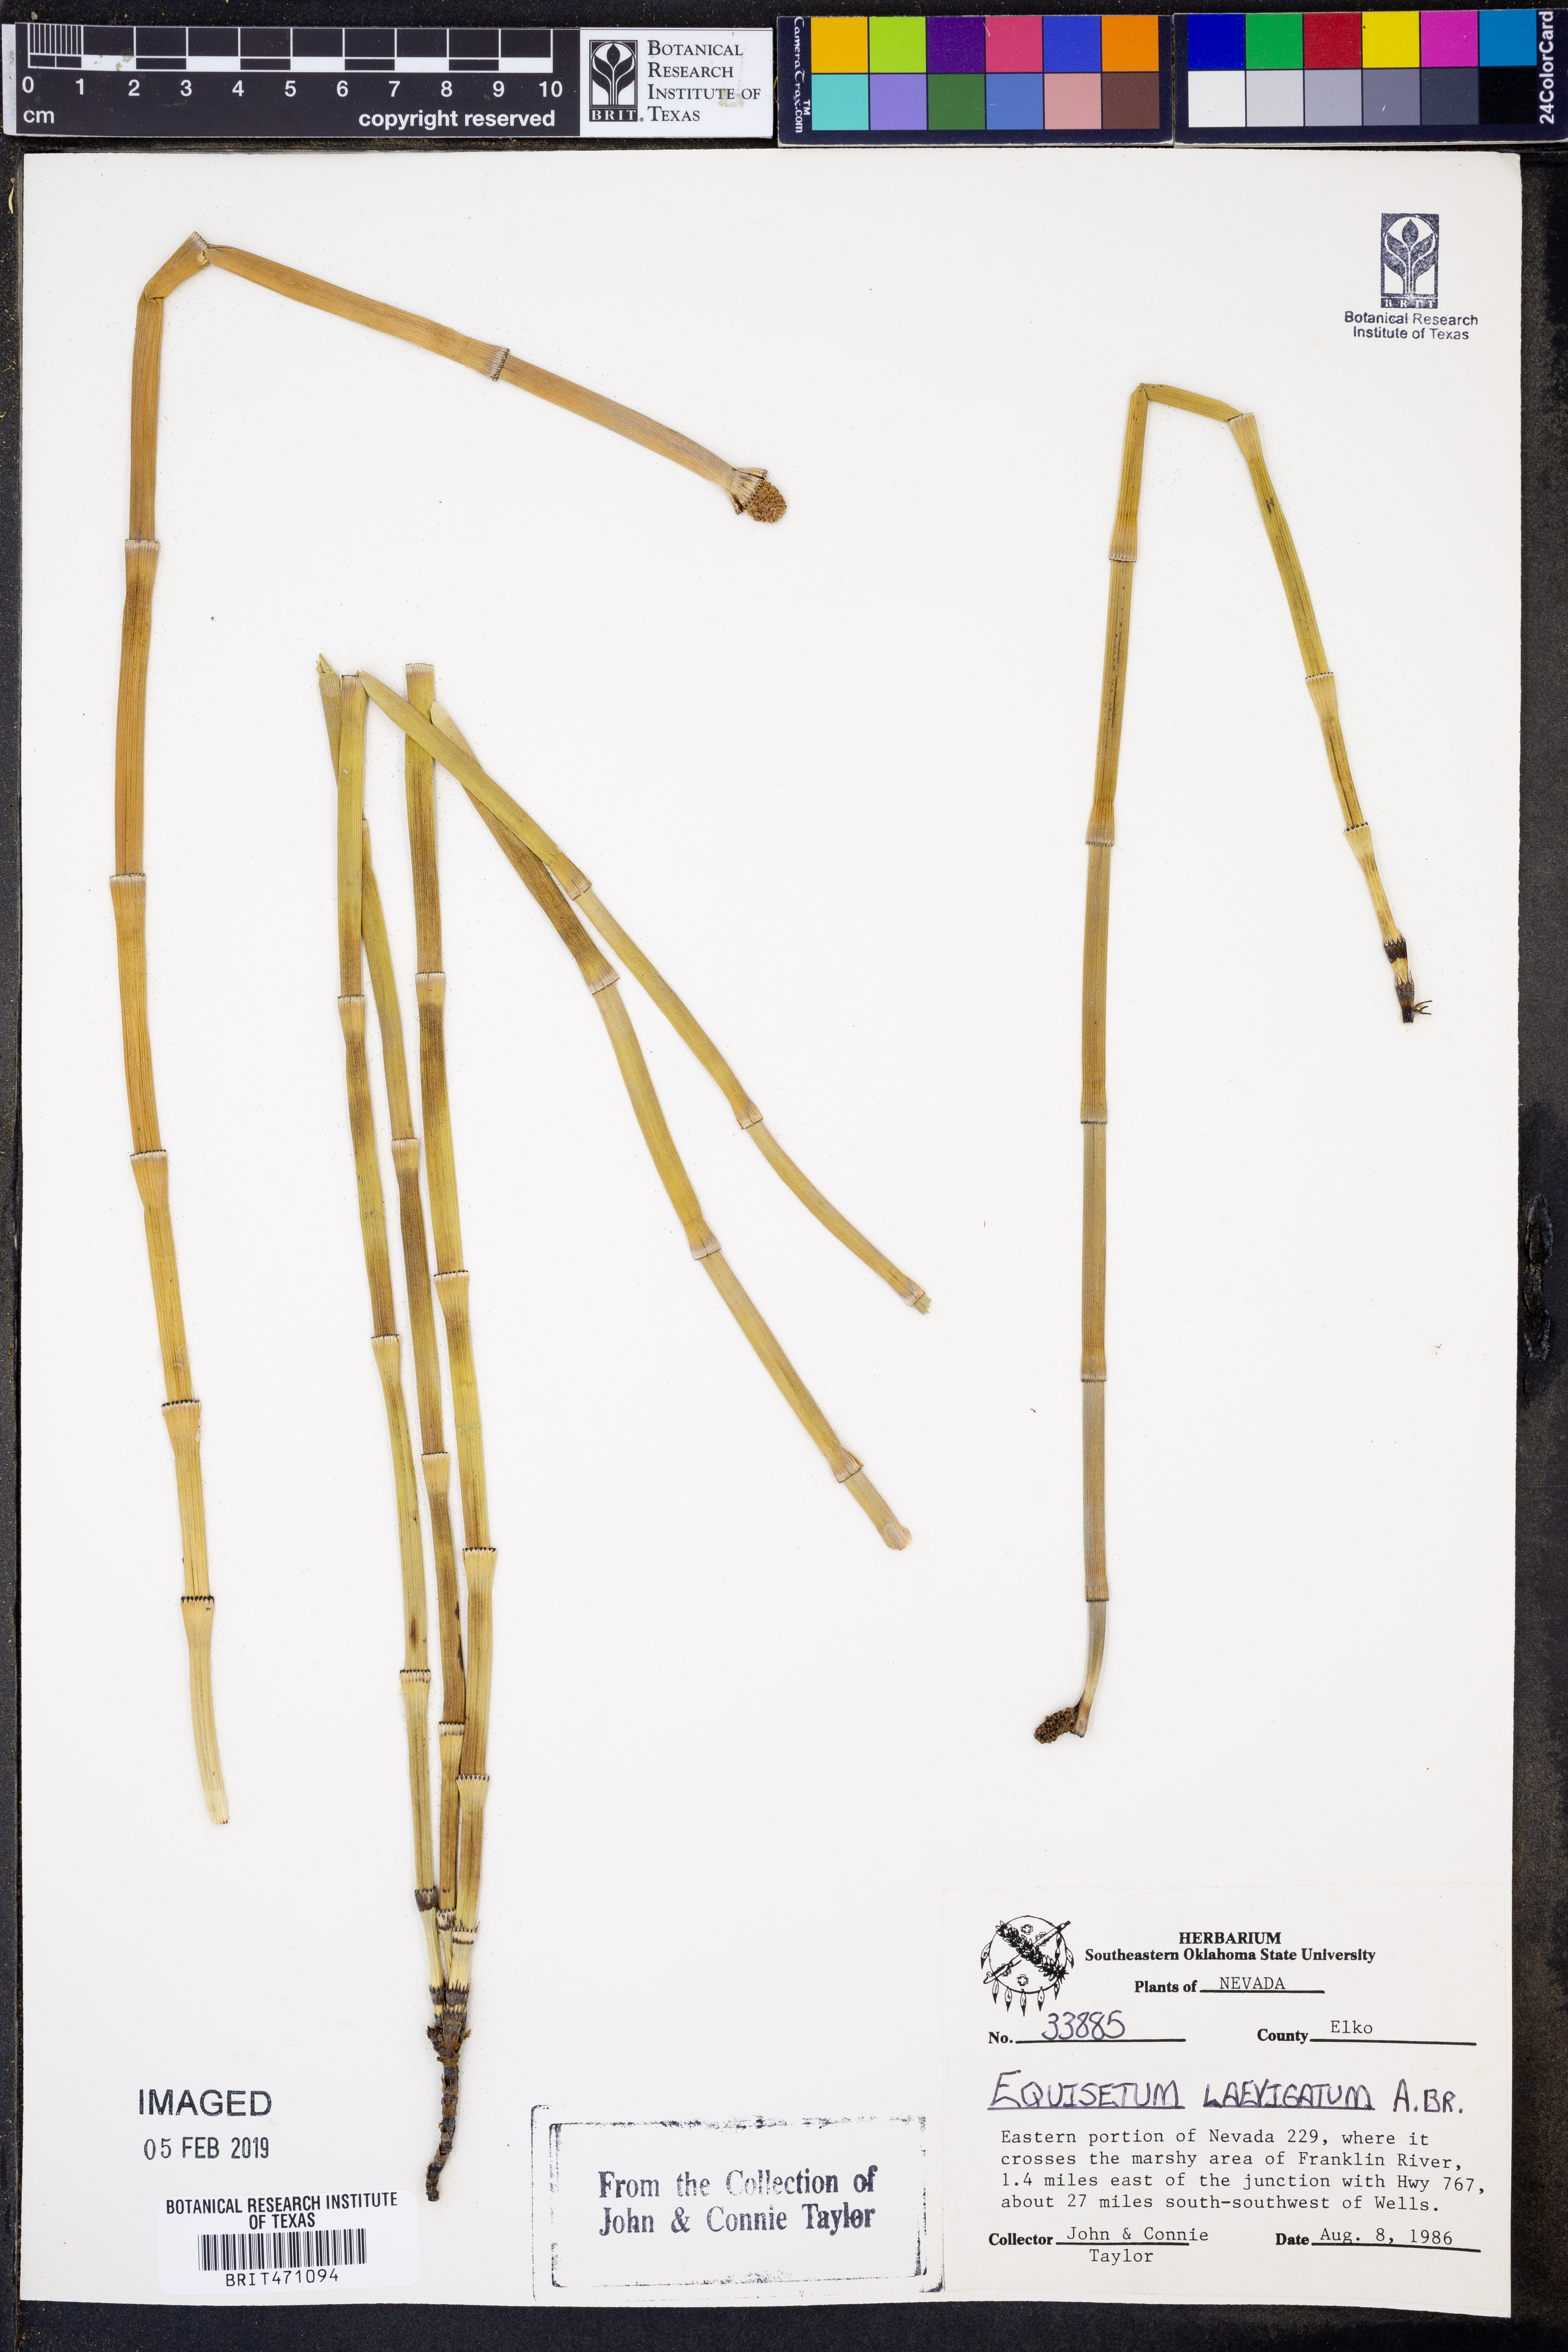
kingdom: Plantae
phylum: Tracheophyta
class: Polypodiopsida
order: Equisetales
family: Equisetaceae
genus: Equisetum
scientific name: Equisetum laevigatum
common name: Smooth scouring-rush
